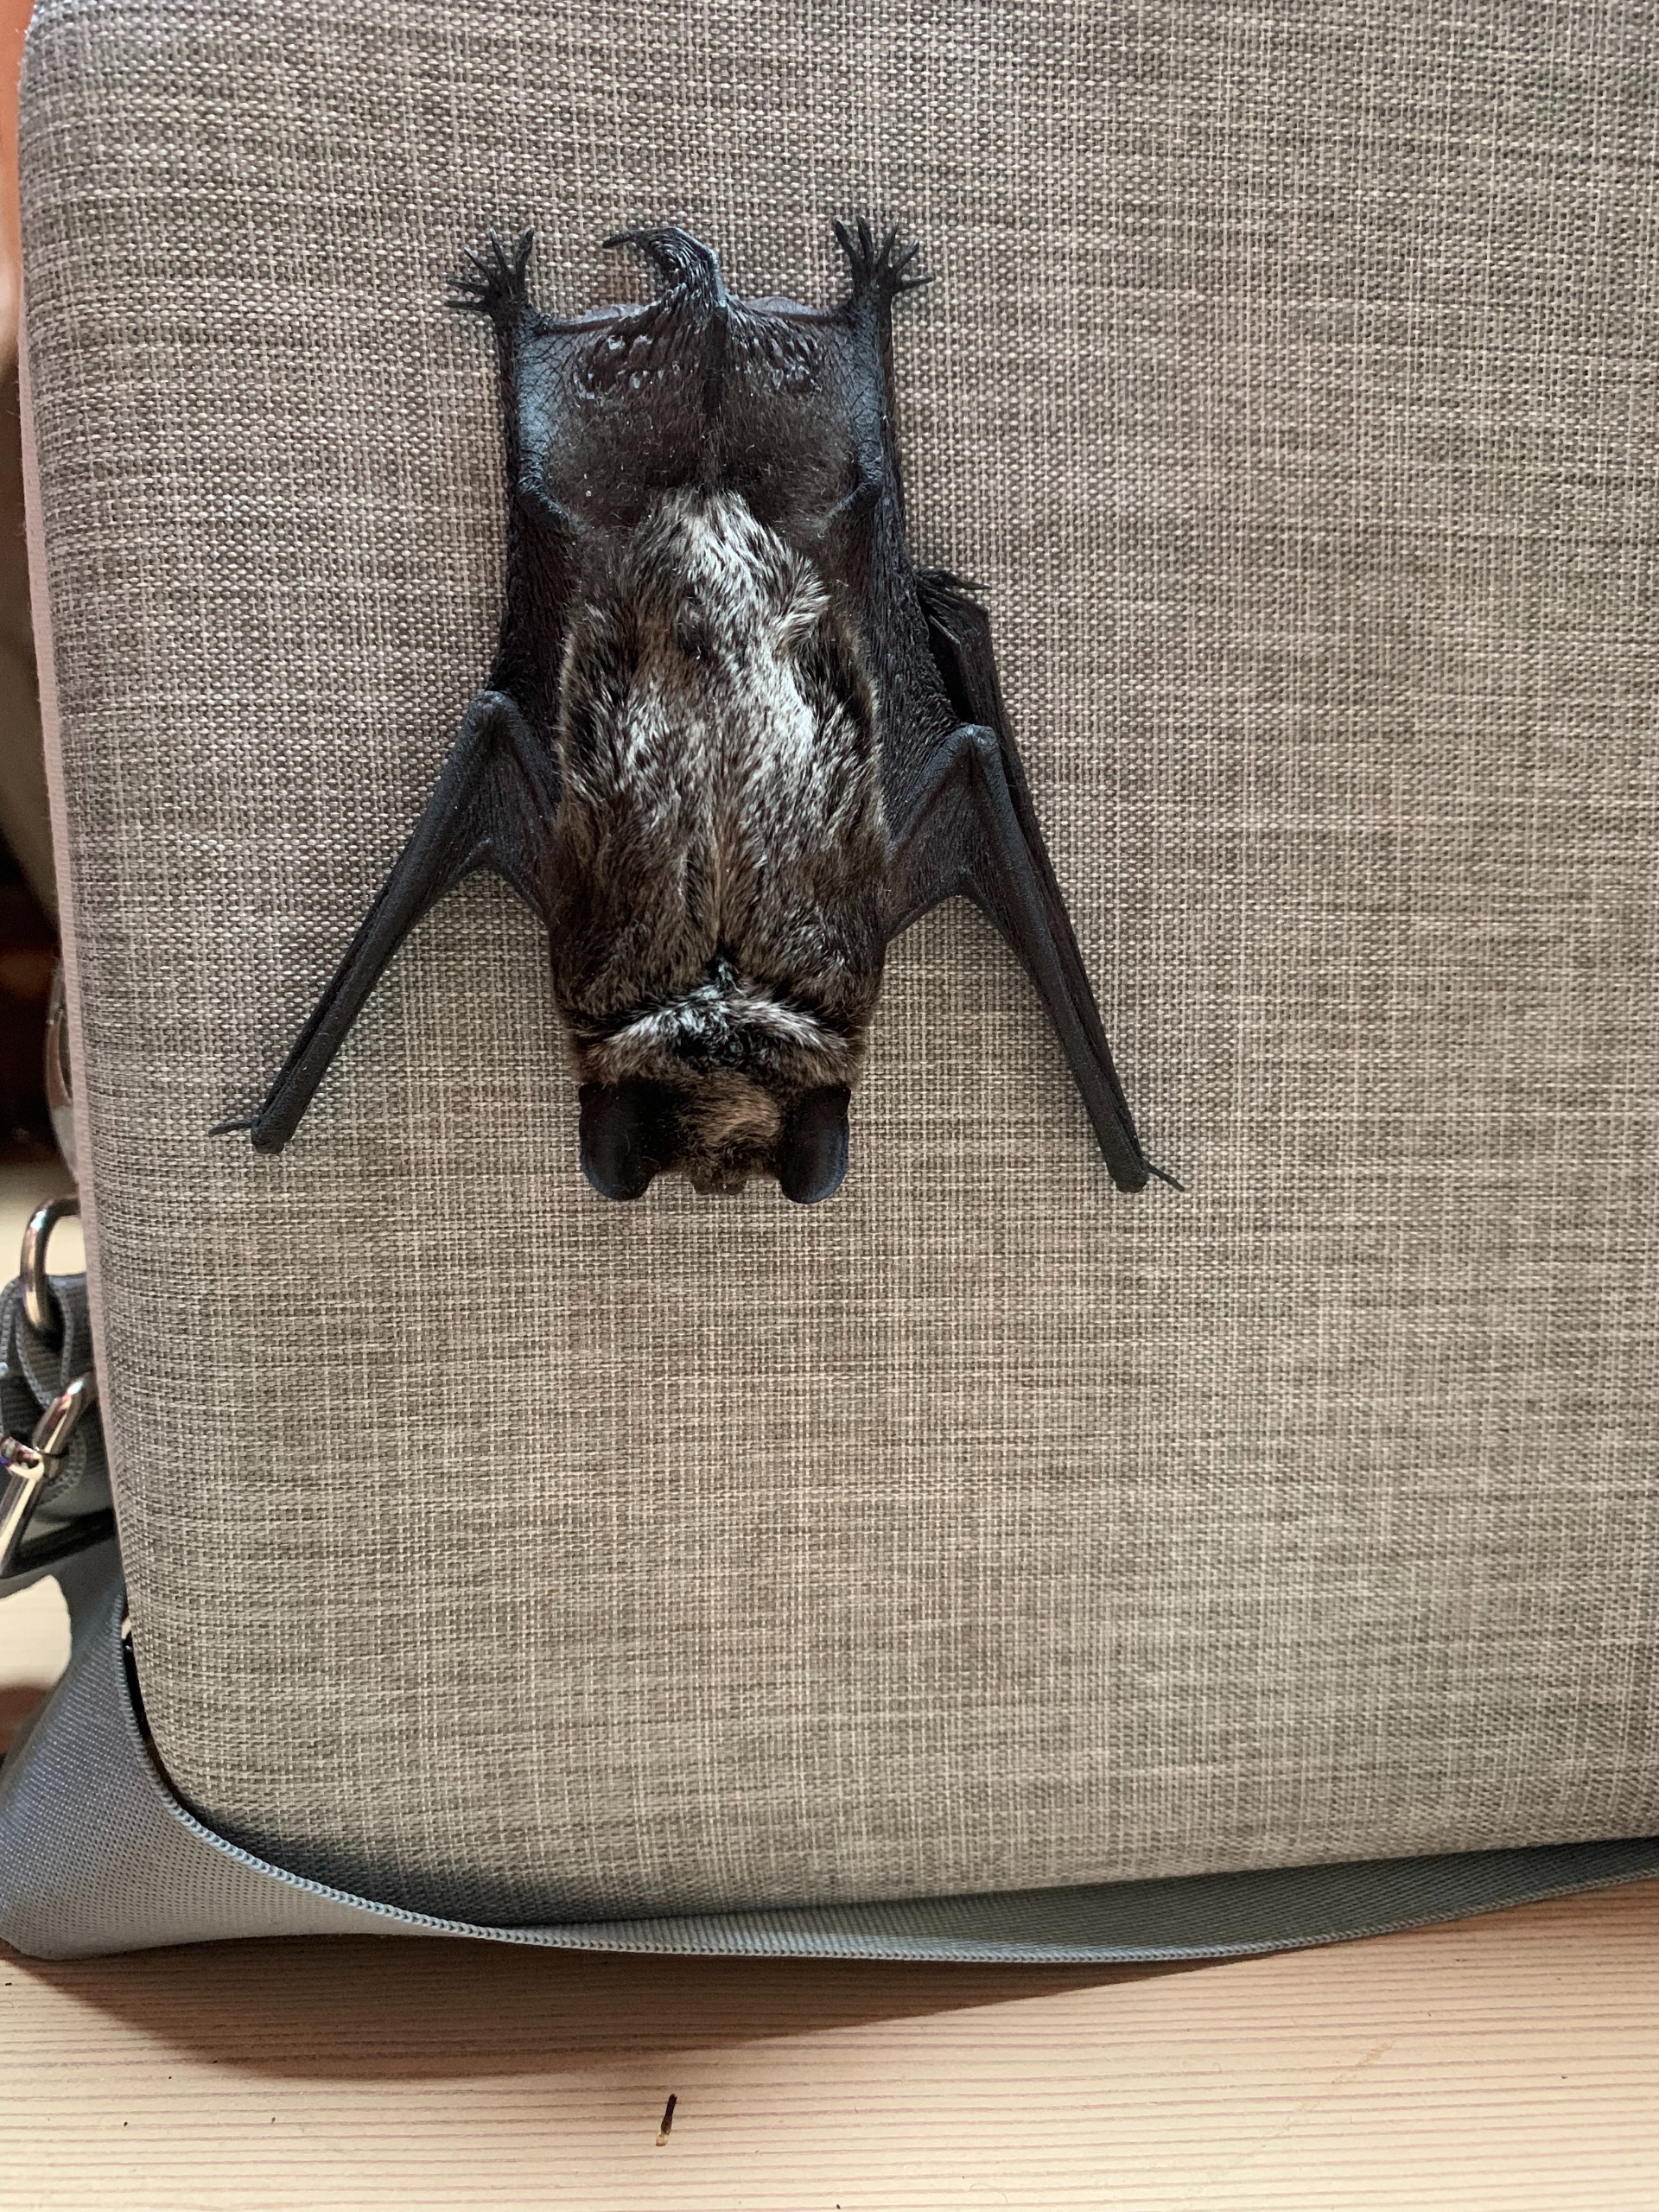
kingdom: Animalia
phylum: Chordata
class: Mammalia
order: Chiroptera
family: Vespertilionidae
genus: Vespertilio
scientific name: Vespertilio murinus
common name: Skimmelflagermus
